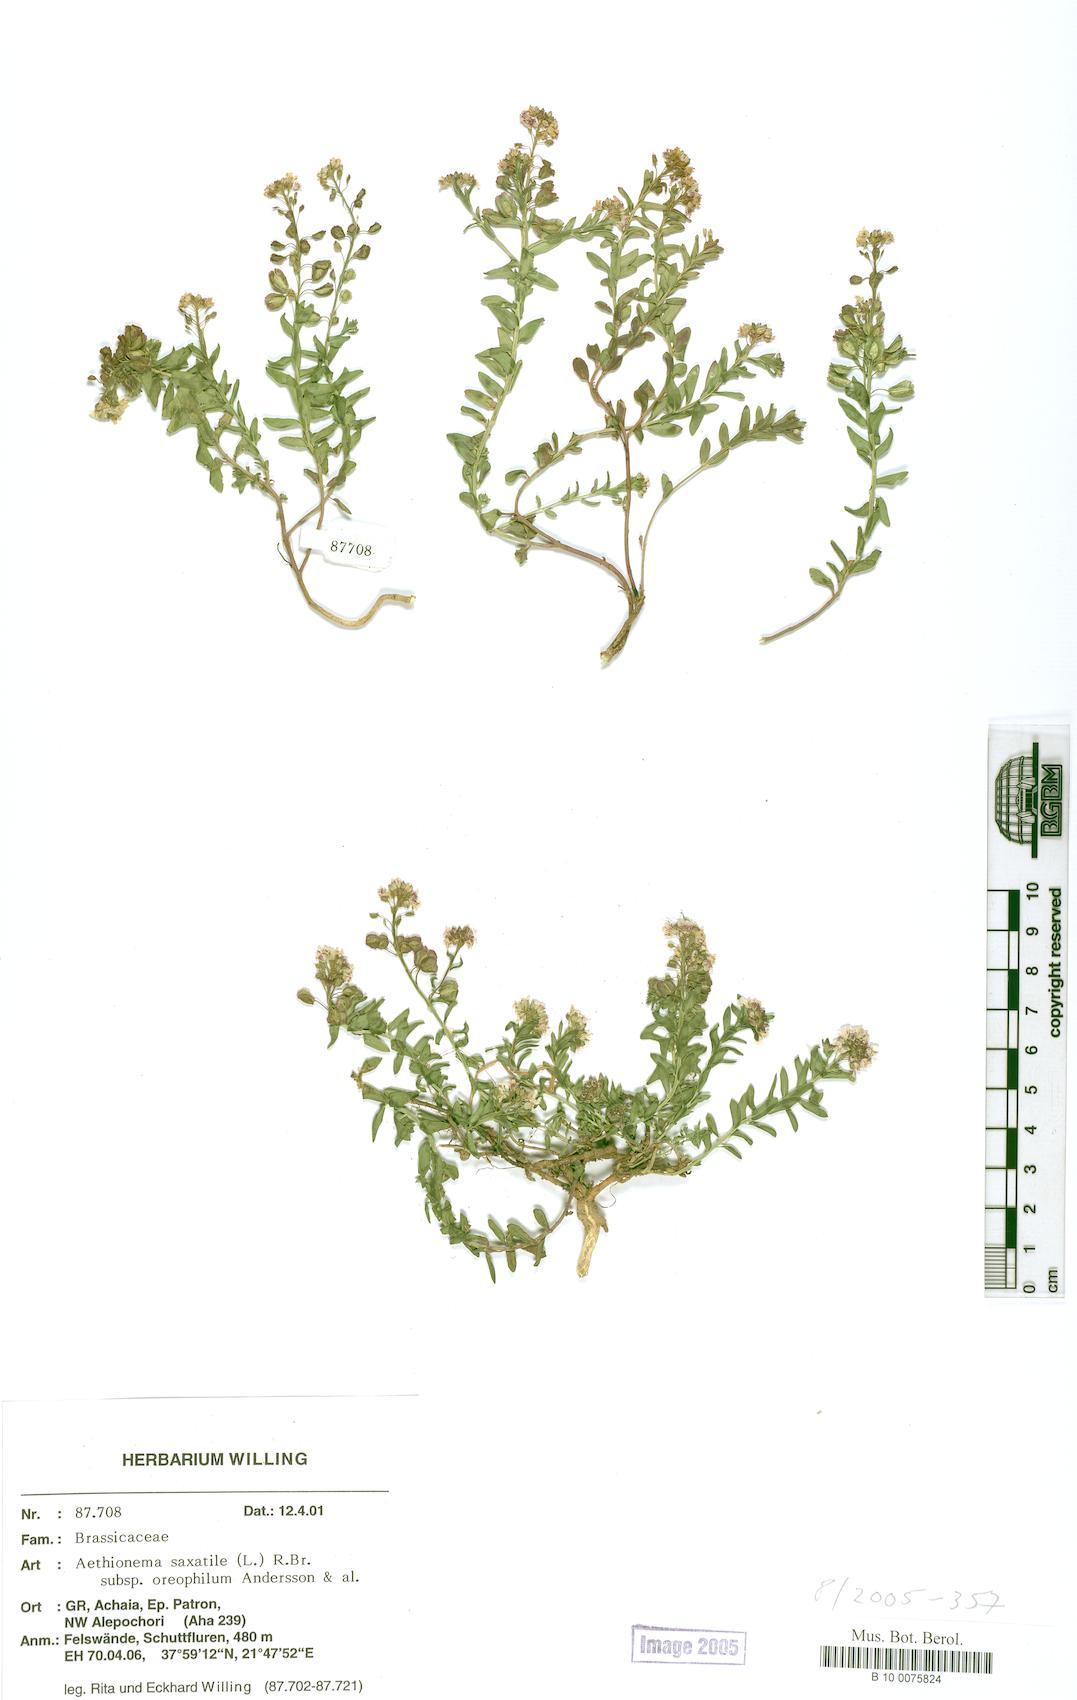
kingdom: Plantae
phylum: Tracheophyta
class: Magnoliopsida
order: Brassicales
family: Brassicaceae
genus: Aethionema
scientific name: Aethionema saxatile
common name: Burnt candytuft
